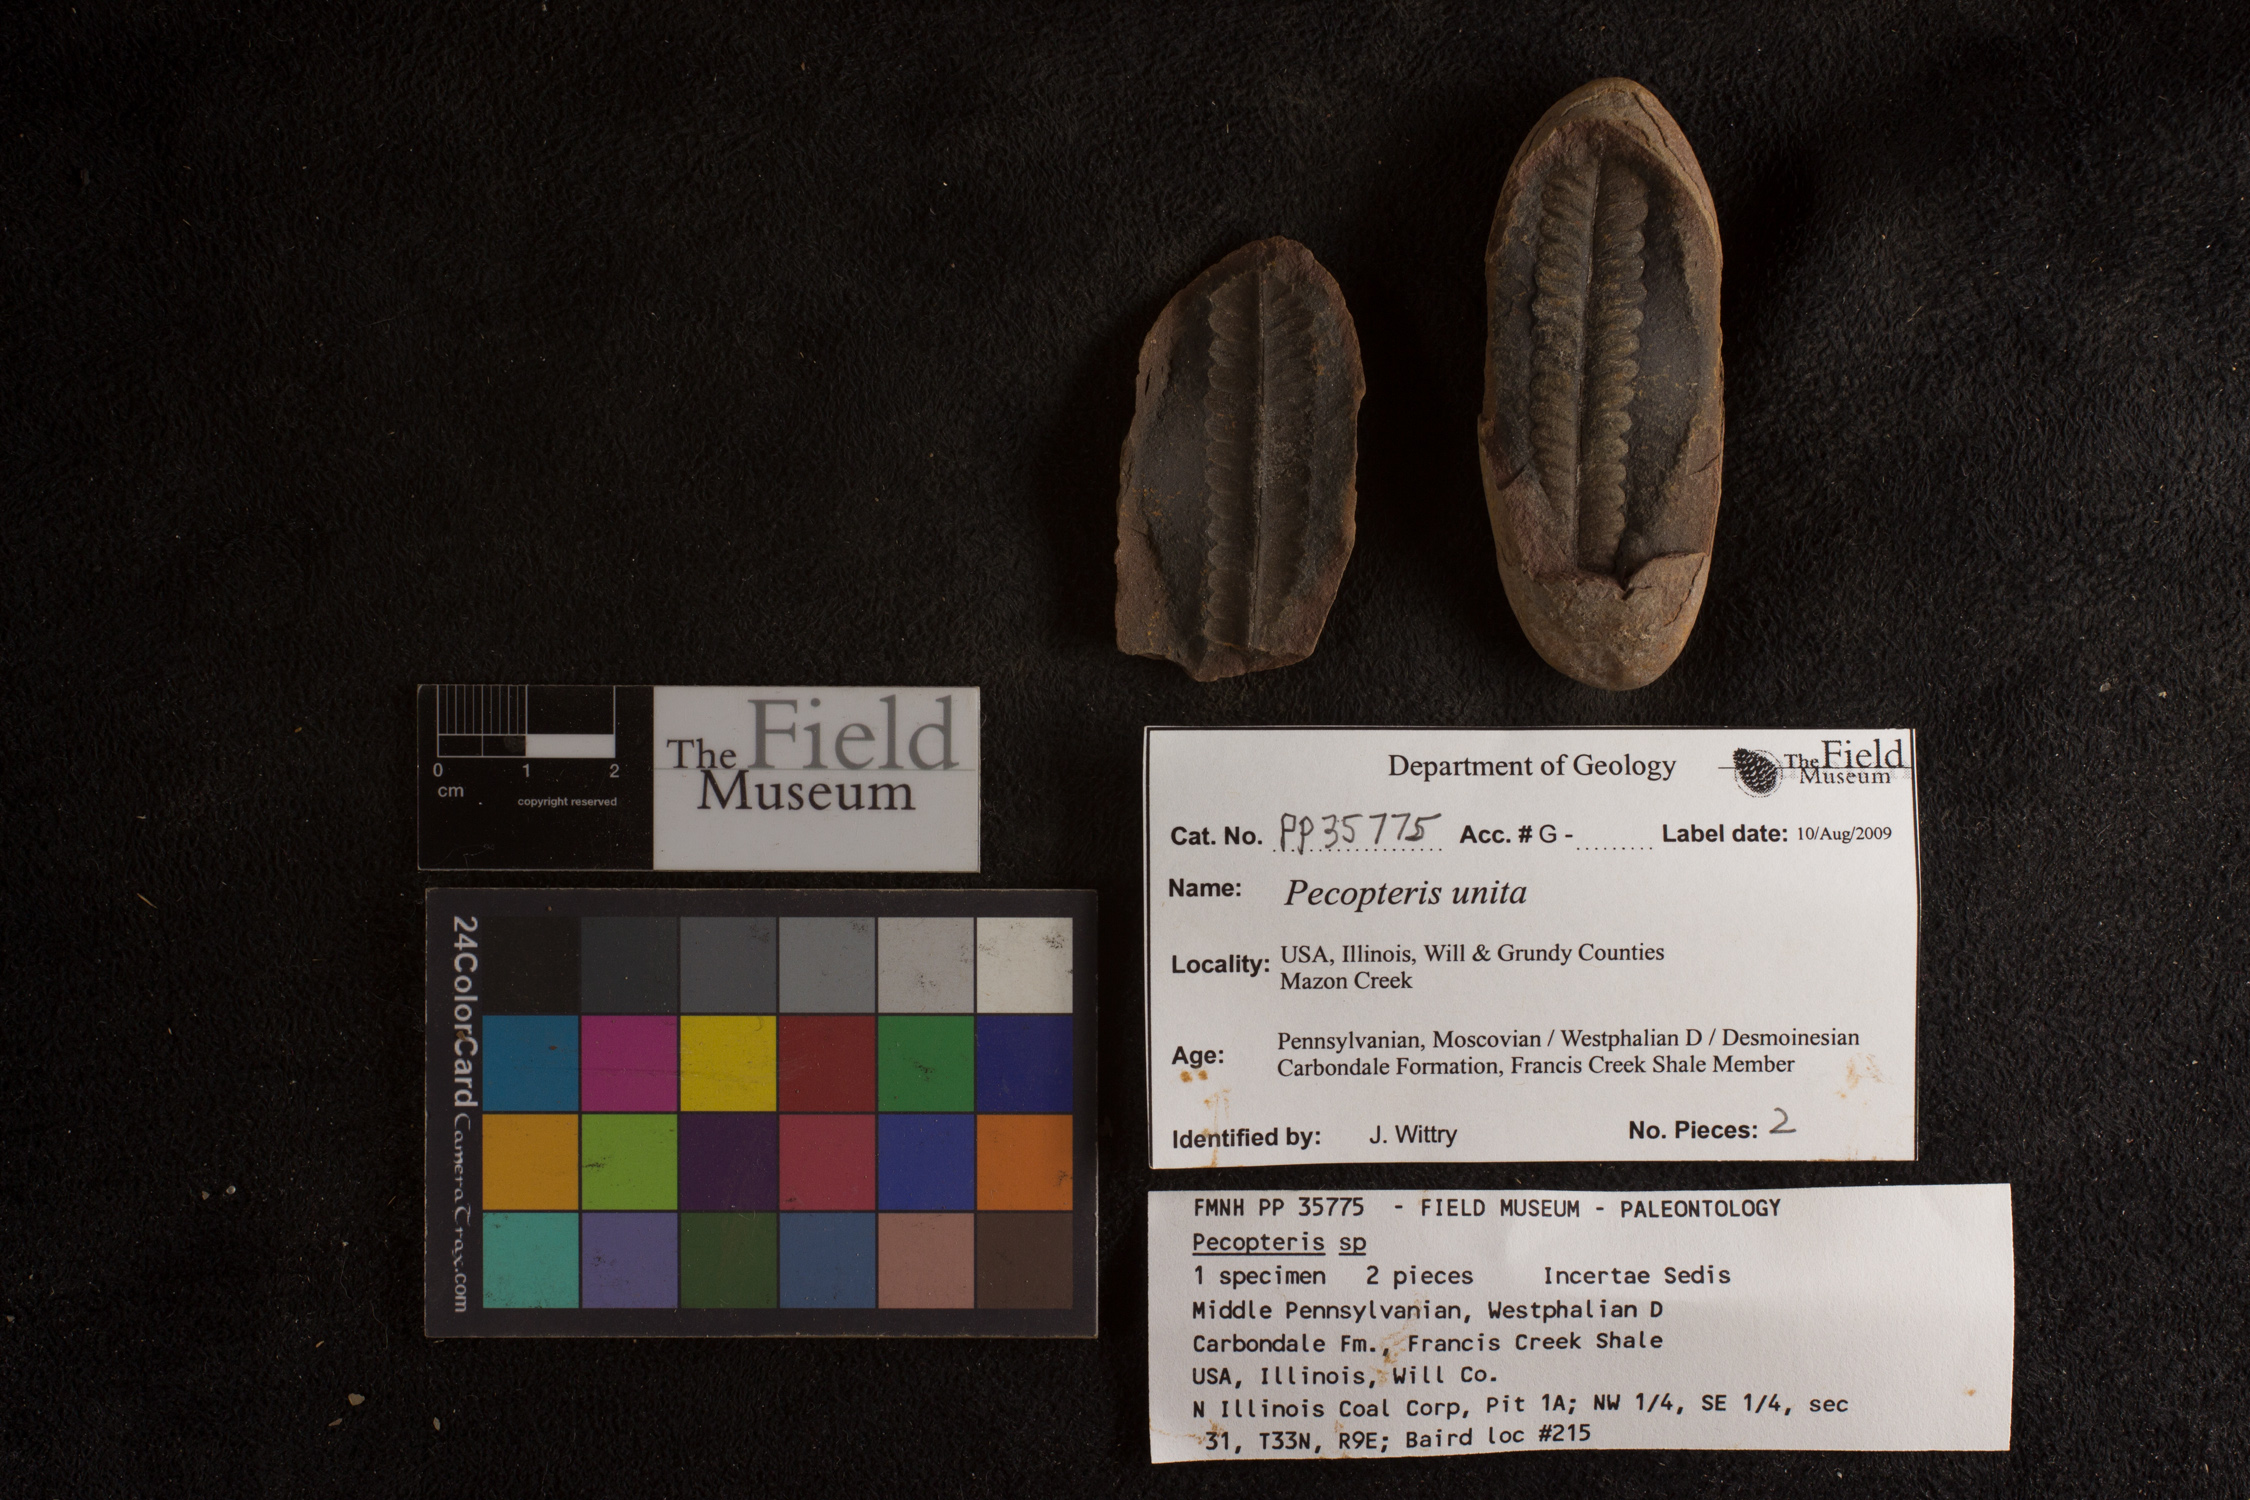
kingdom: Plantae
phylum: Tracheophyta
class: Polypodiopsida
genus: Diplazites
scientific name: Diplazites
